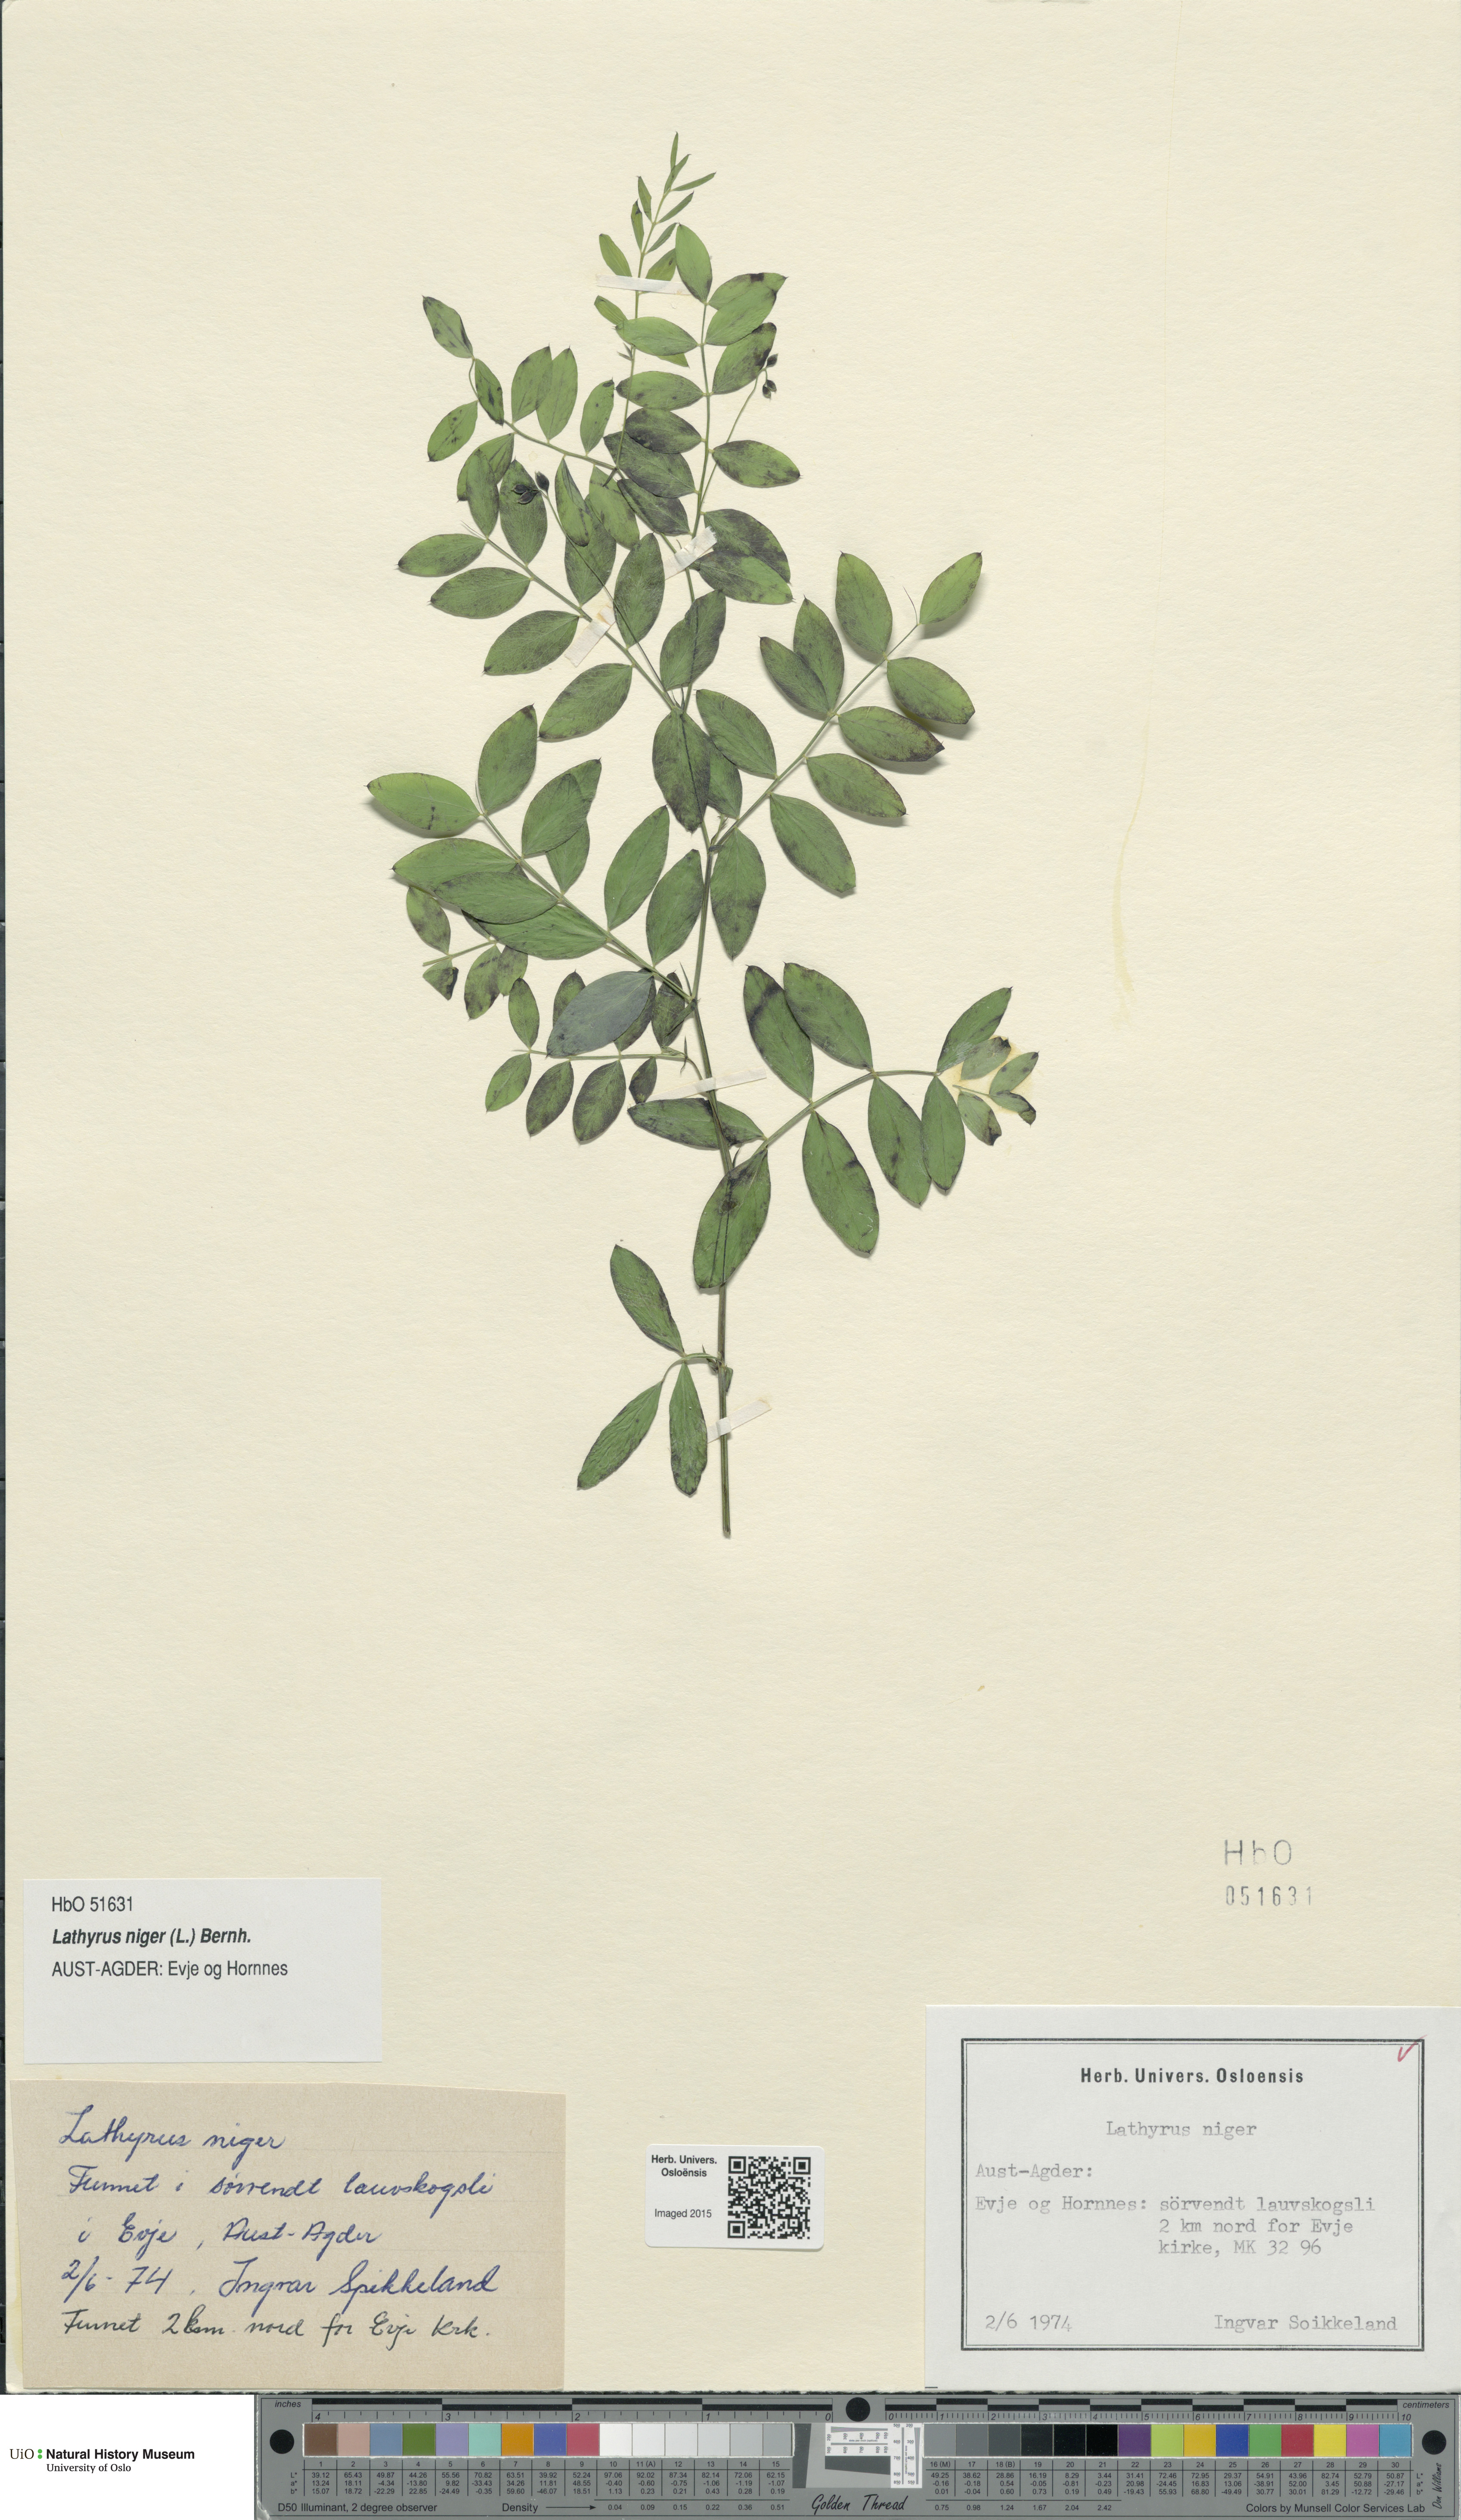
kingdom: Plantae
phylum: Tracheophyta
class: Magnoliopsida
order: Fabales
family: Fabaceae
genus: Lathyrus
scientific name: Lathyrus niger
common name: Black pea
